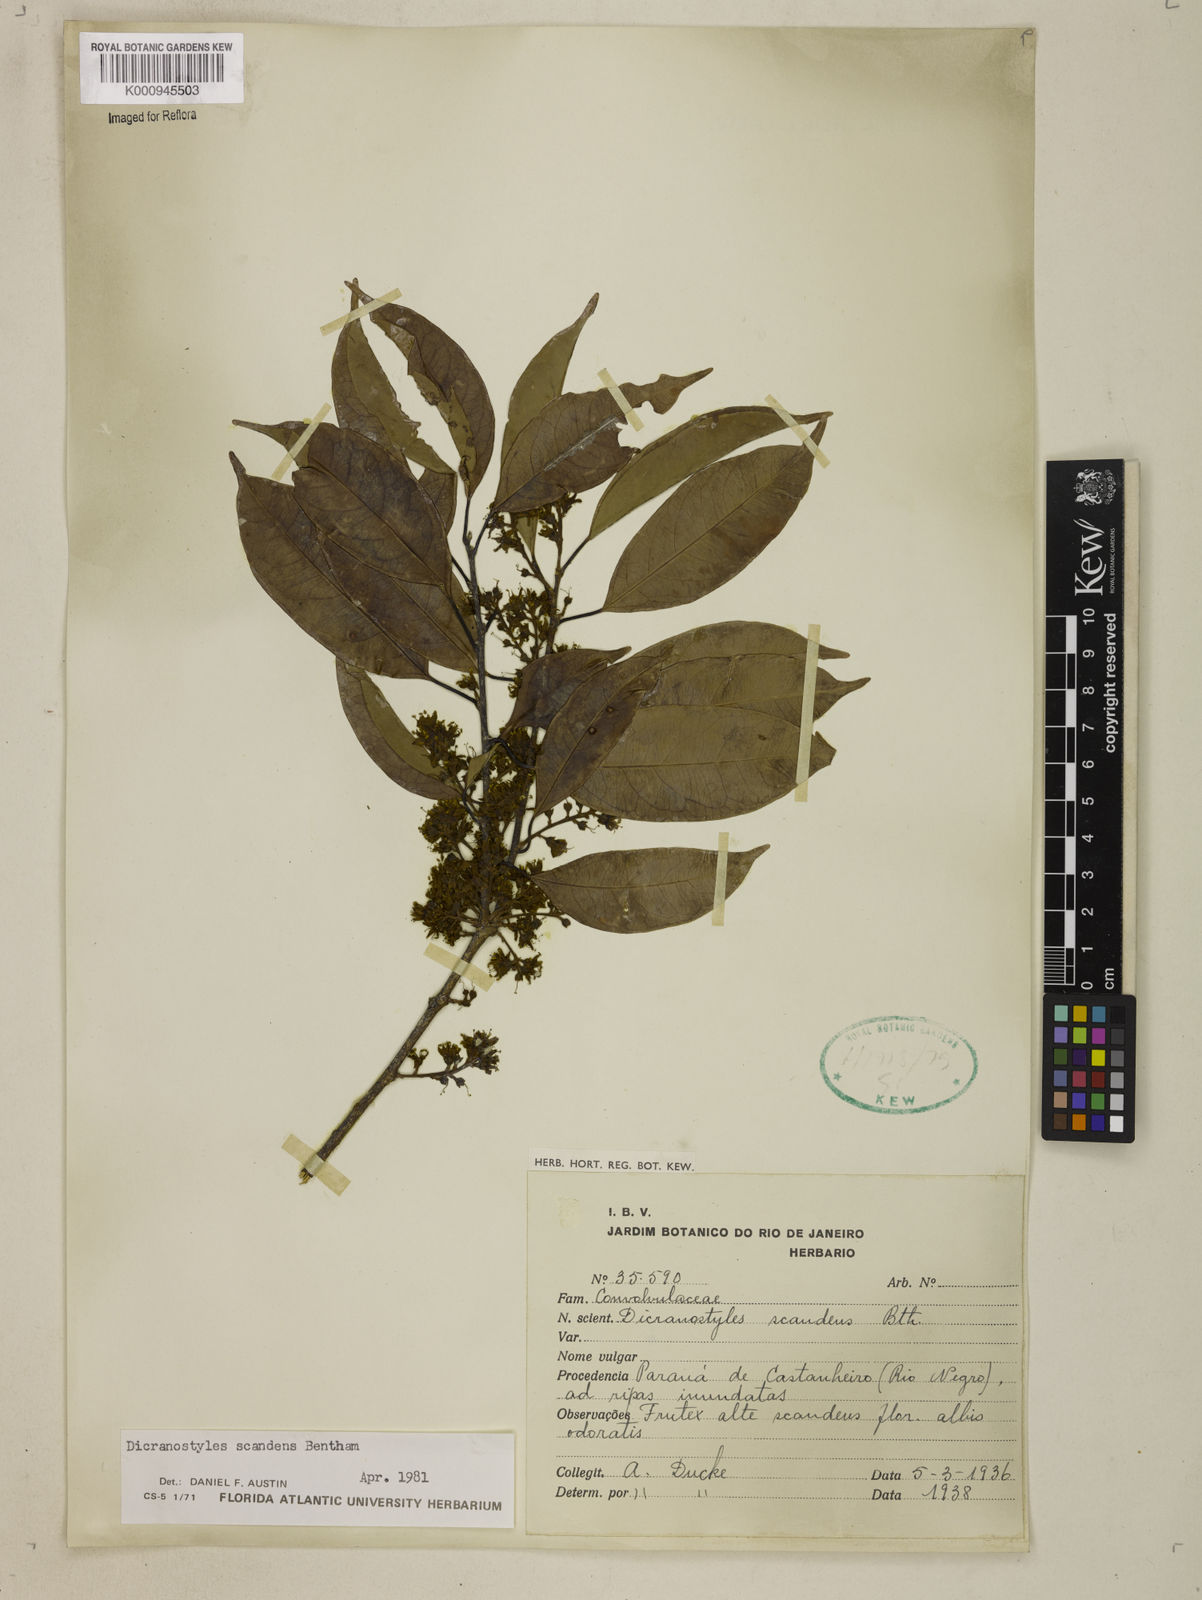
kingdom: Plantae
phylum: Tracheophyta
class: Magnoliopsida
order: Solanales
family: Convolvulaceae
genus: Dicranostyles
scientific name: Dicranostyles scandens
